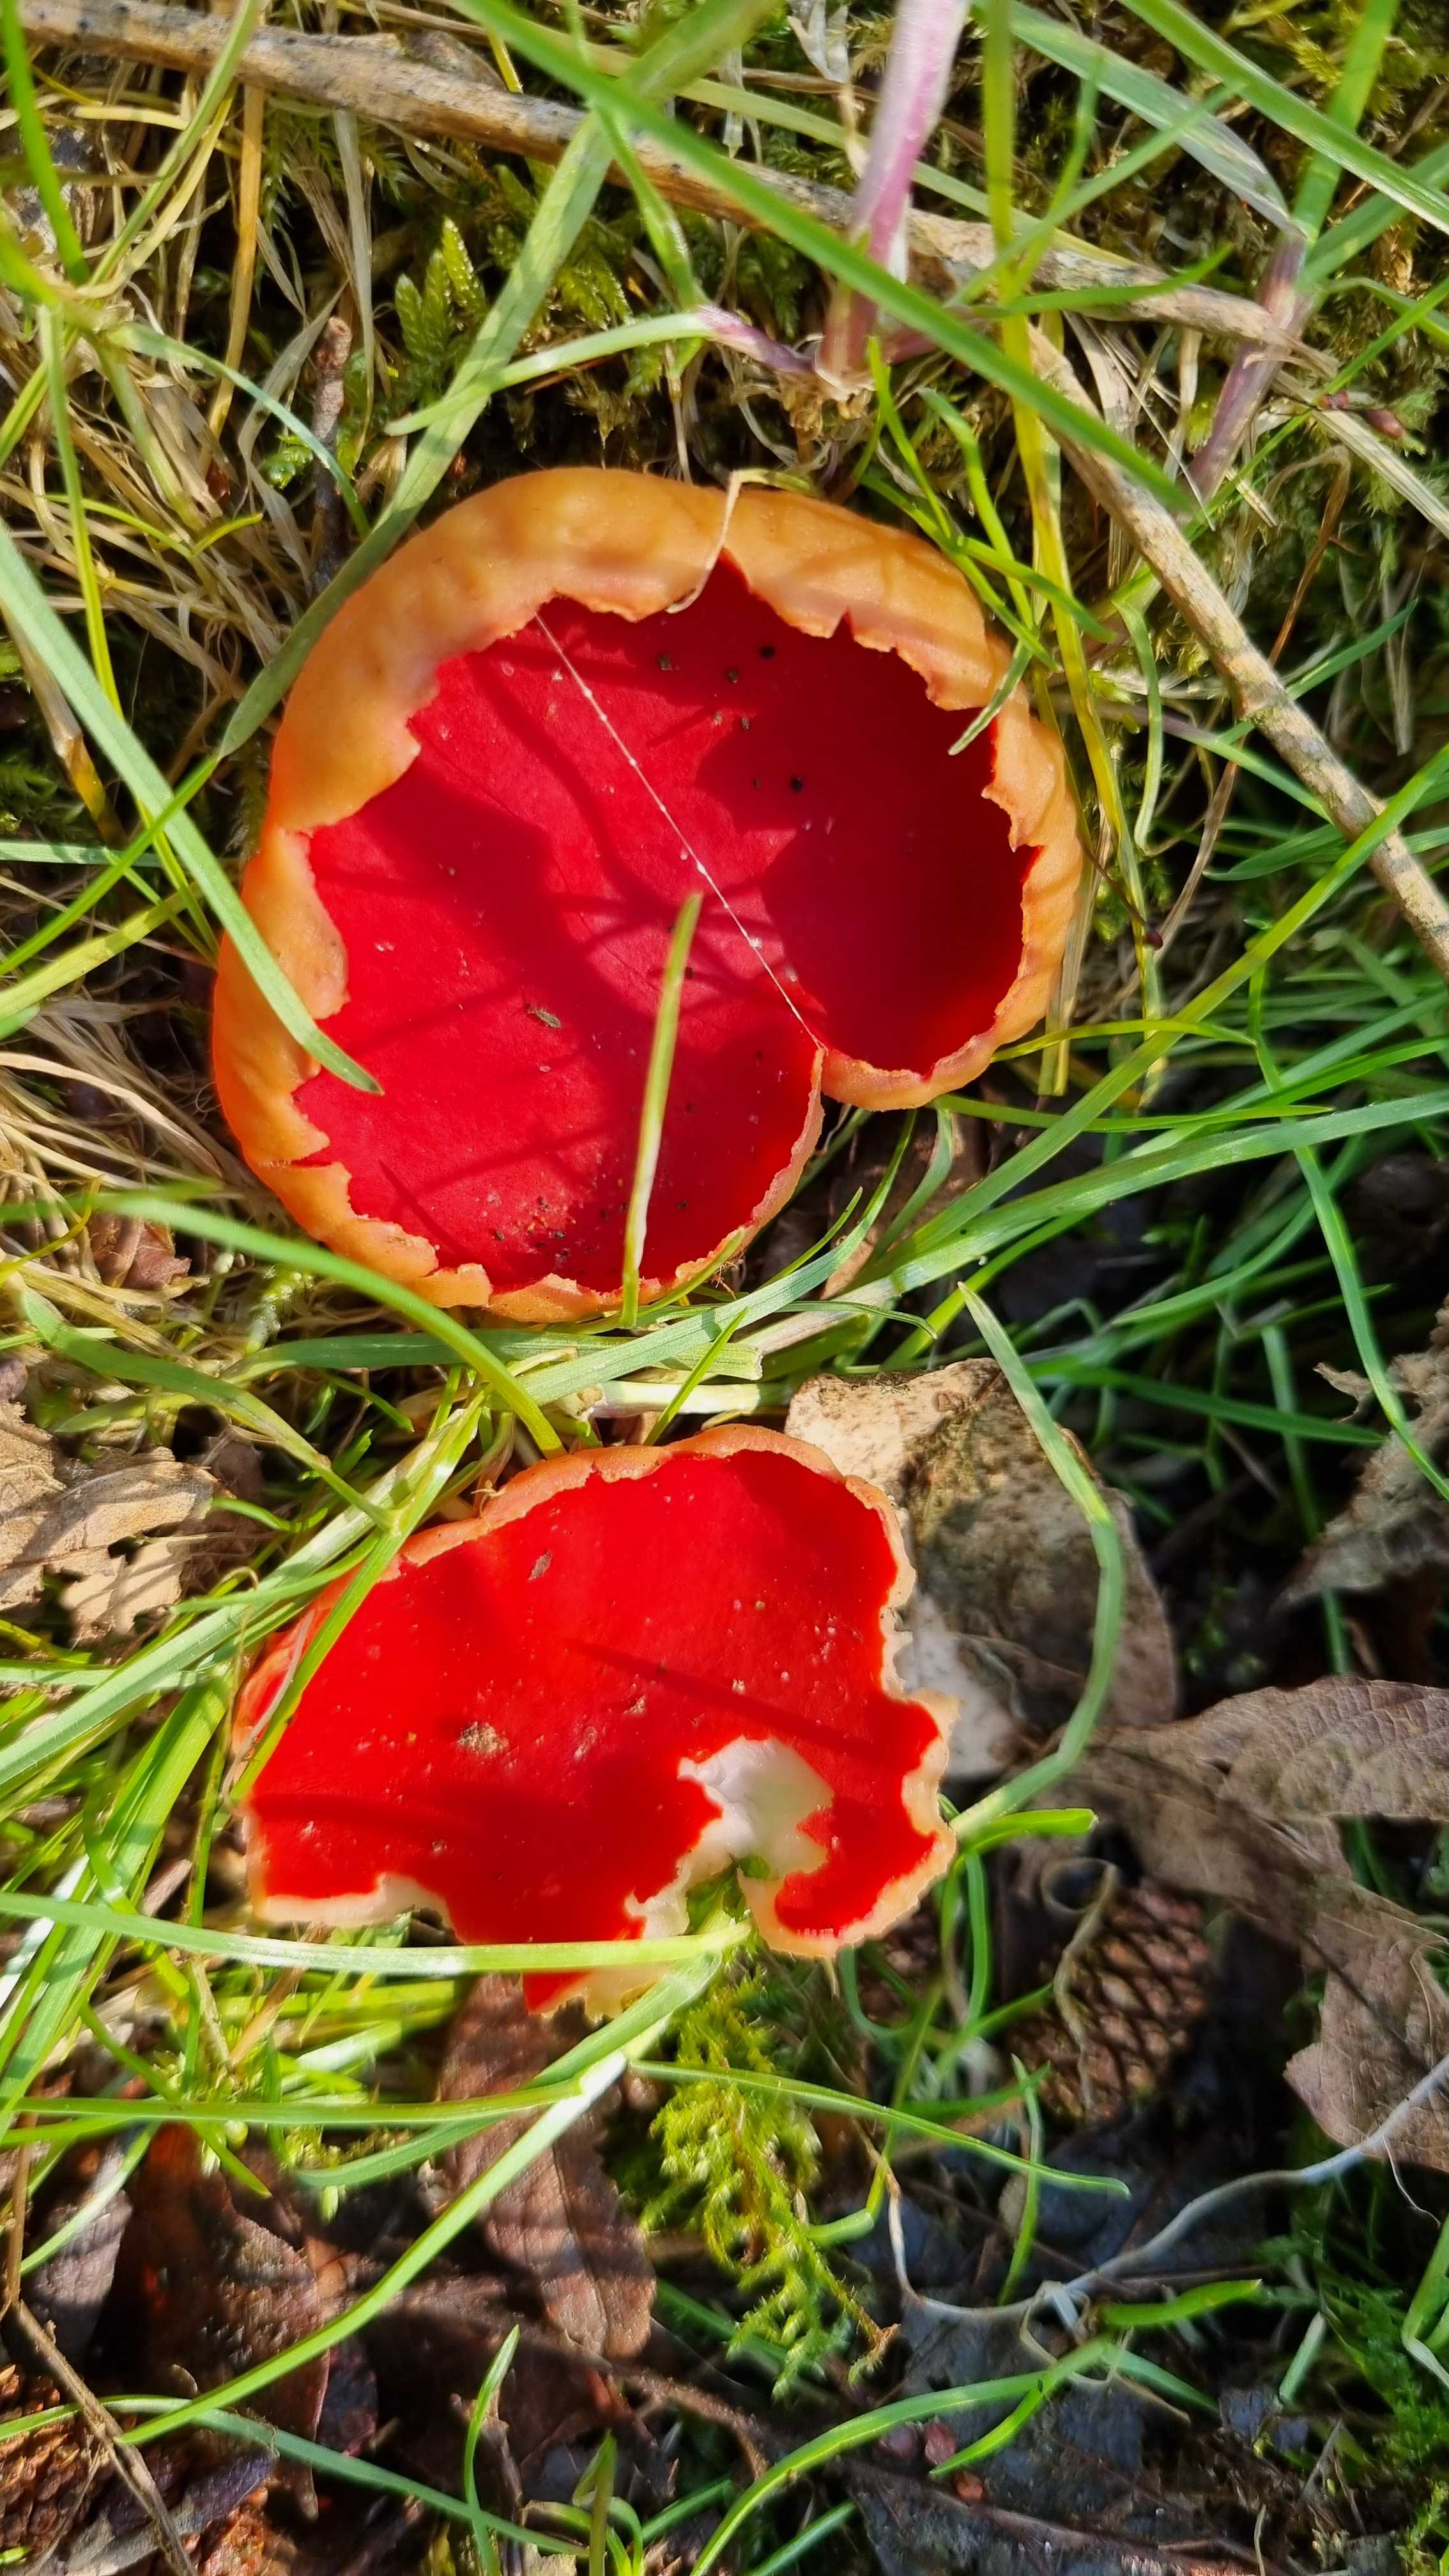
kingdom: Fungi
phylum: Ascomycota
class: Pezizomycetes
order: Pezizales
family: Sarcoscyphaceae
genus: Sarcoscypha
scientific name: Sarcoscypha austriaca
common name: krølhåret pragtbæger
